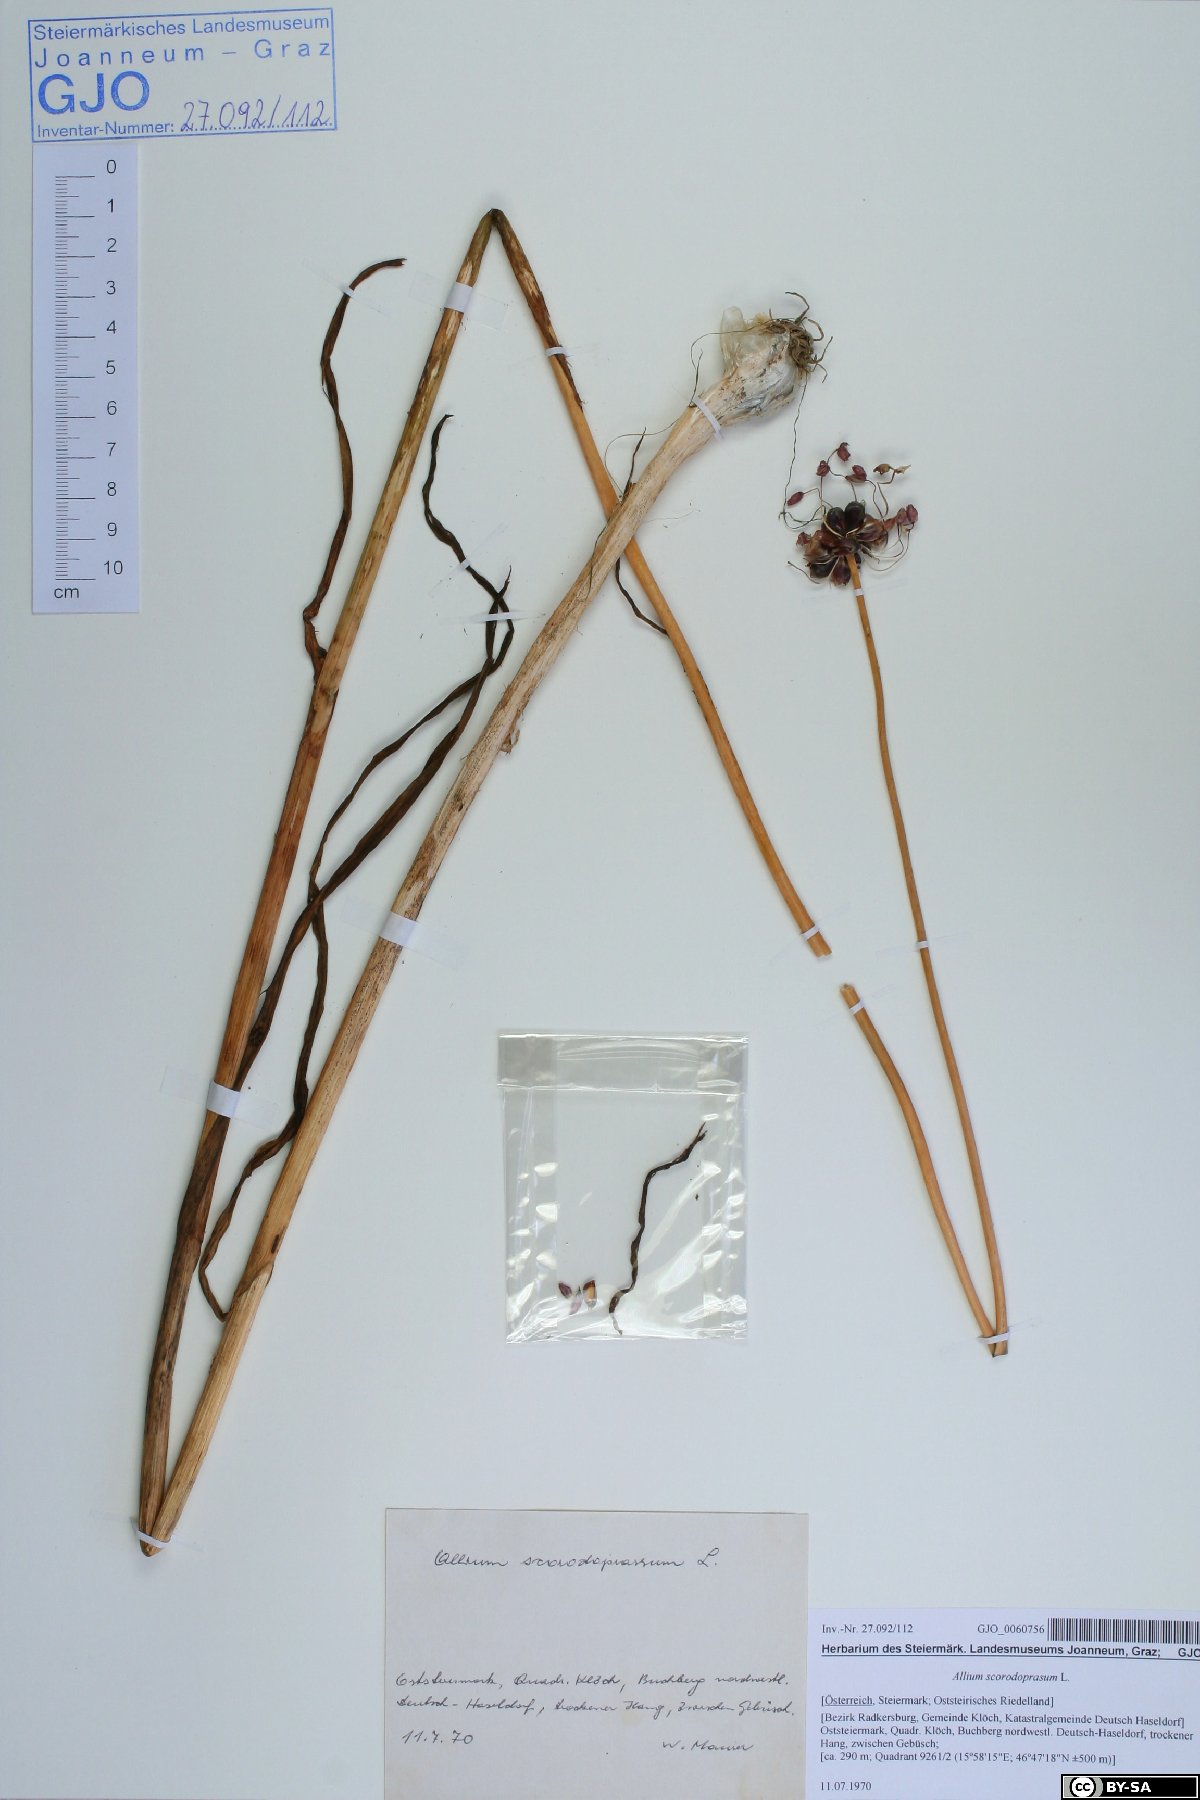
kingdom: Plantae
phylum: Tracheophyta
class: Liliopsida
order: Asparagales
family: Amaryllidaceae
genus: Allium
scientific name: Allium scorodoprasum
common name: Sand leek
